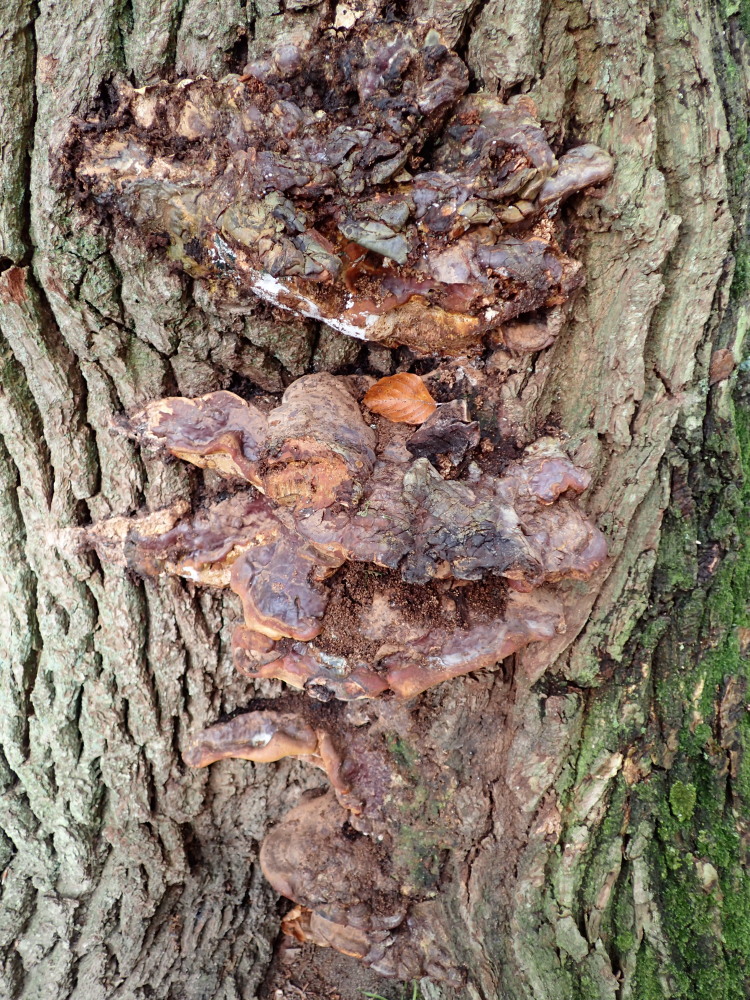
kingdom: Fungi
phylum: Basidiomycota
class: Agaricomycetes
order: Polyporales
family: Polyporaceae
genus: Ganoderma
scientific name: Ganoderma resinaceum
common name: gyldenbrun lakporesvamp
